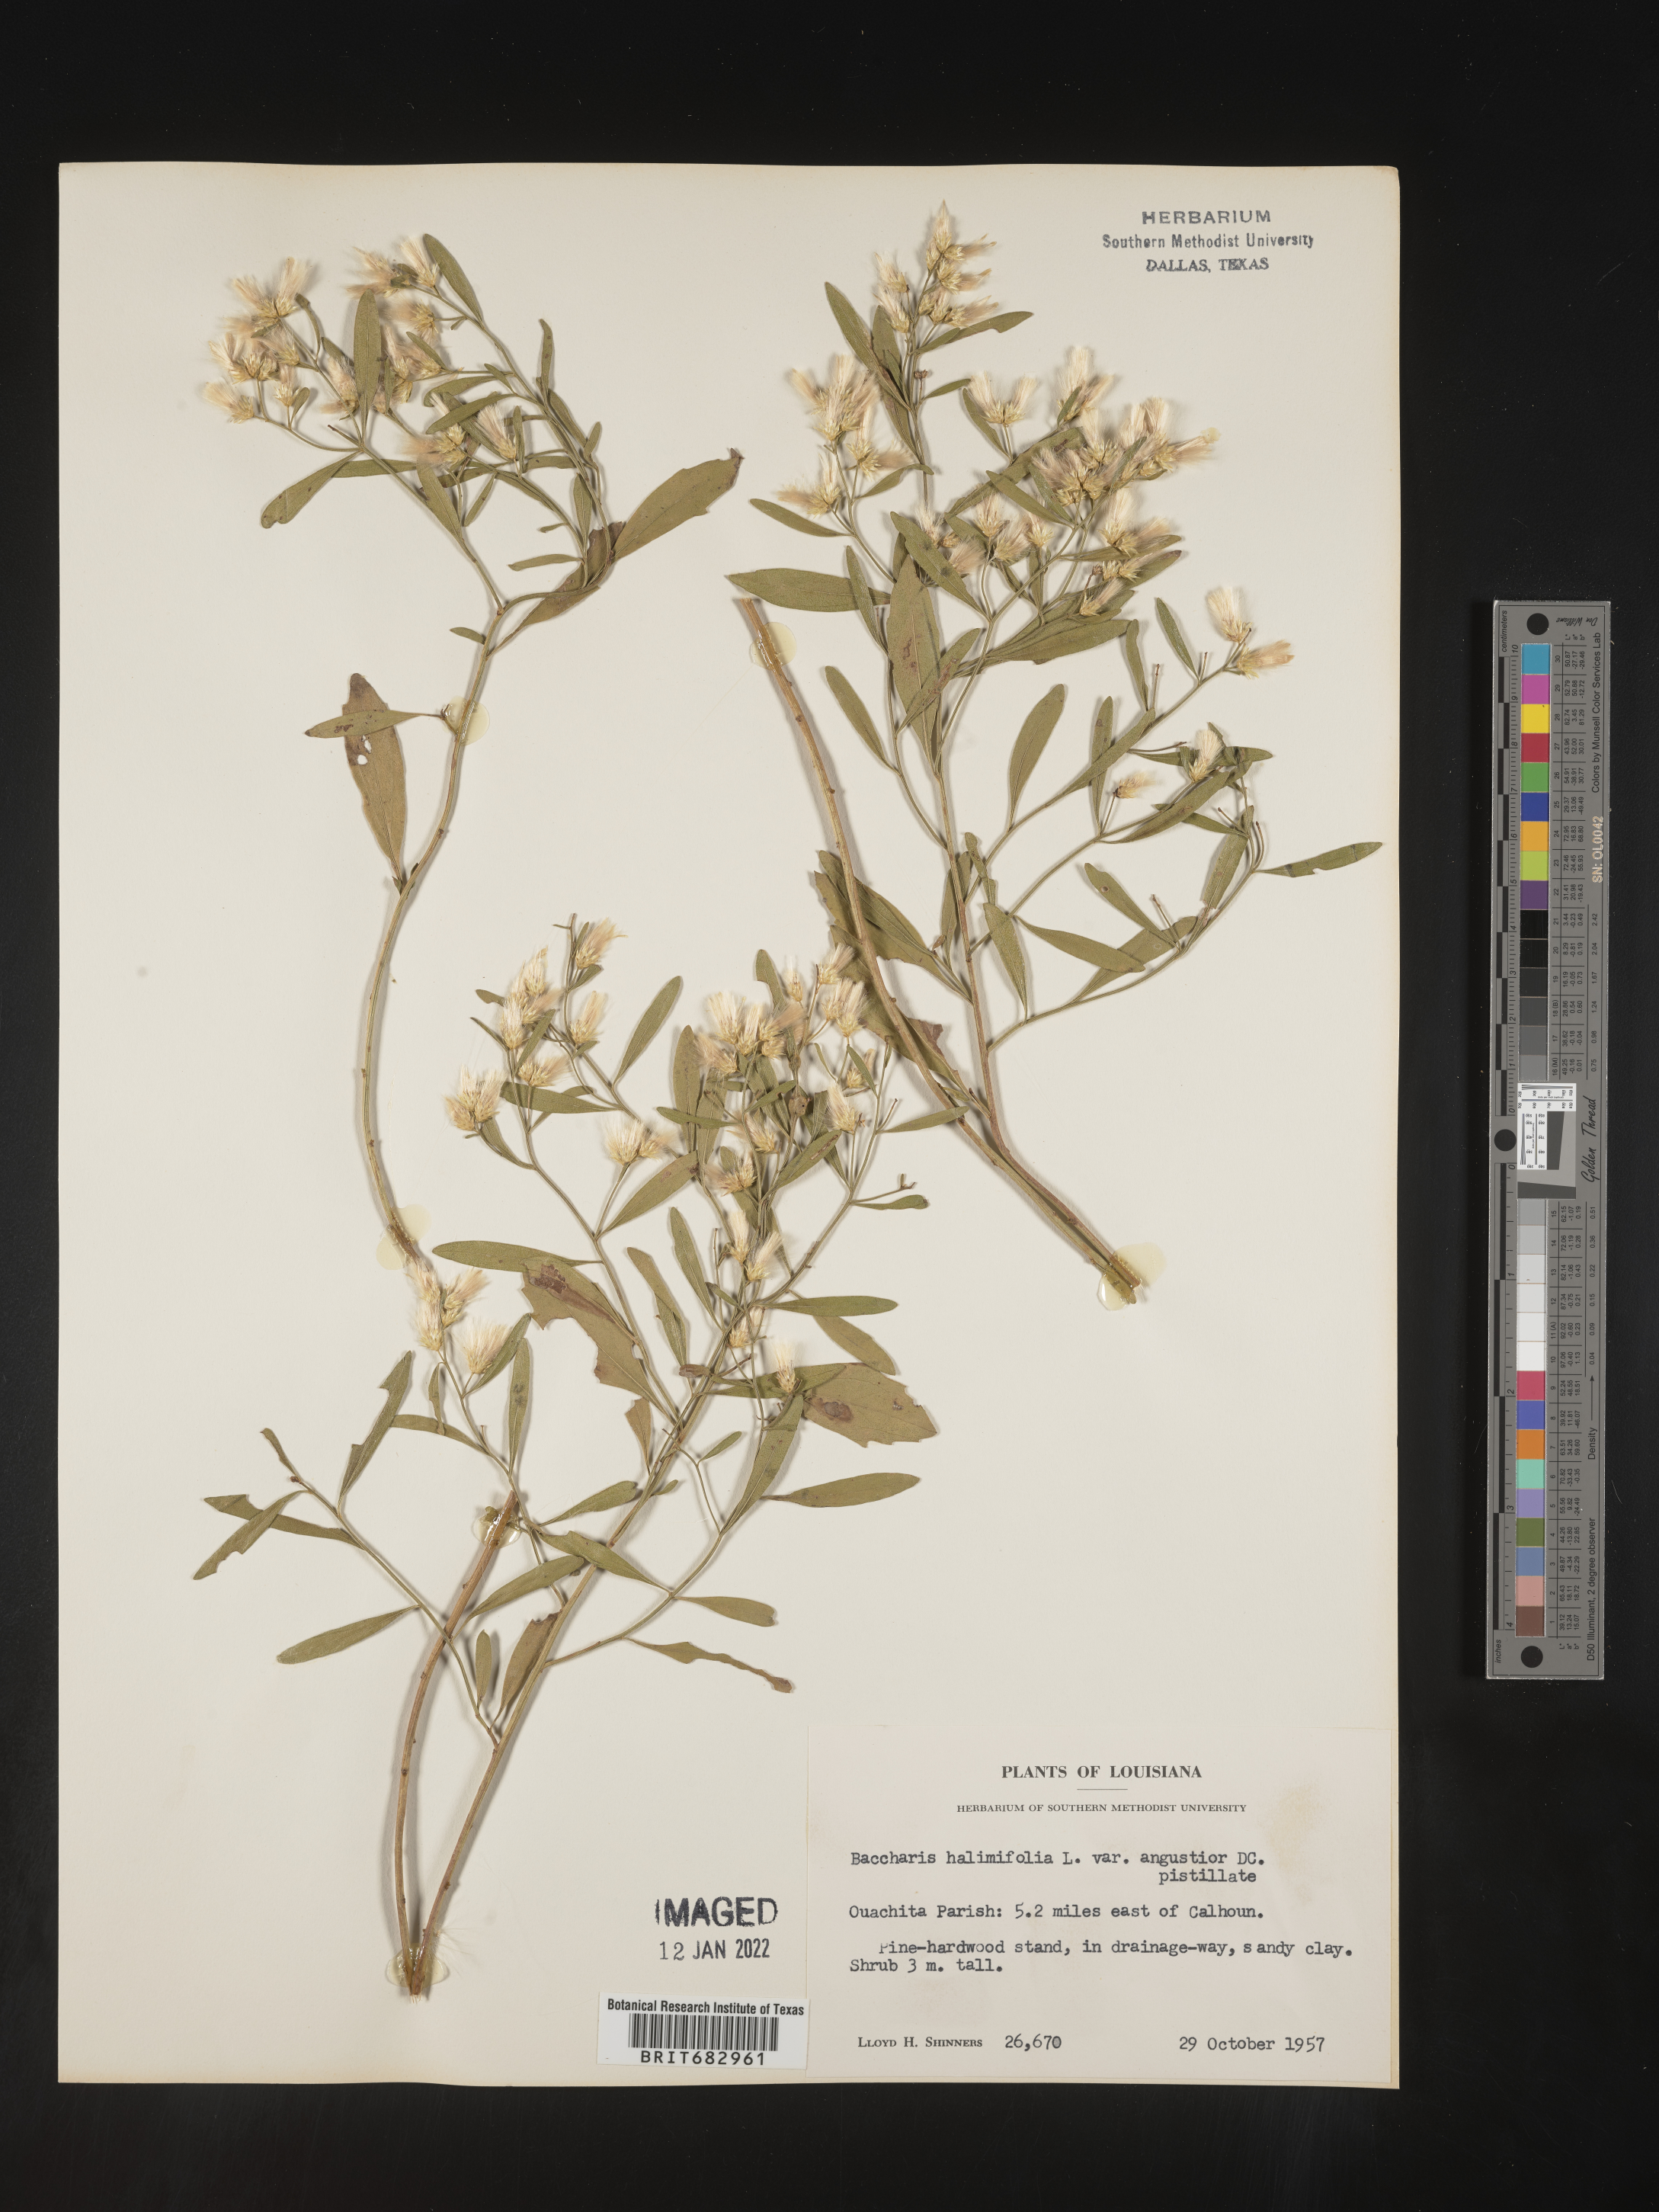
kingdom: Plantae
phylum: Tracheophyta
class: Magnoliopsida
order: Asterales
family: Asteraceae
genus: Nidorella
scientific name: Nidorella ivifolia
